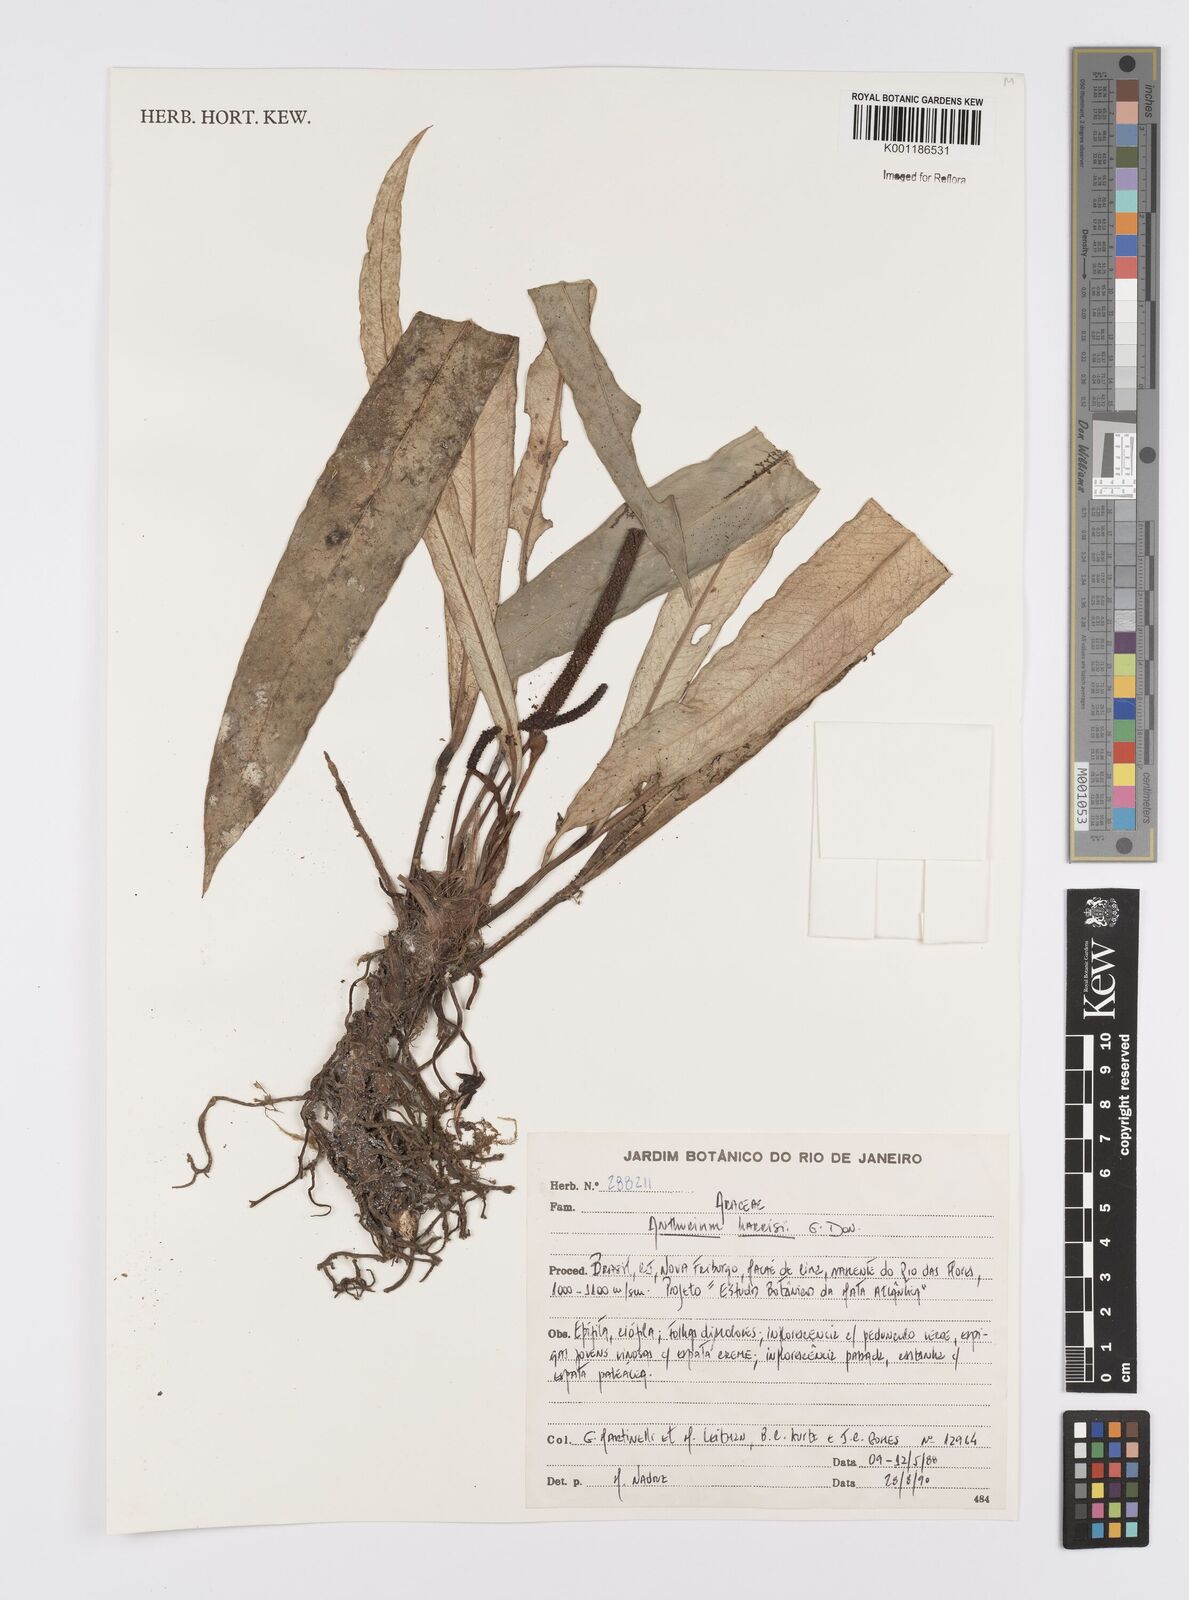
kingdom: Plantae
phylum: Tracheophyta
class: Liliopsida
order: Alismatales
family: Araceae
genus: Anthurium
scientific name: Anthurium harrisii
